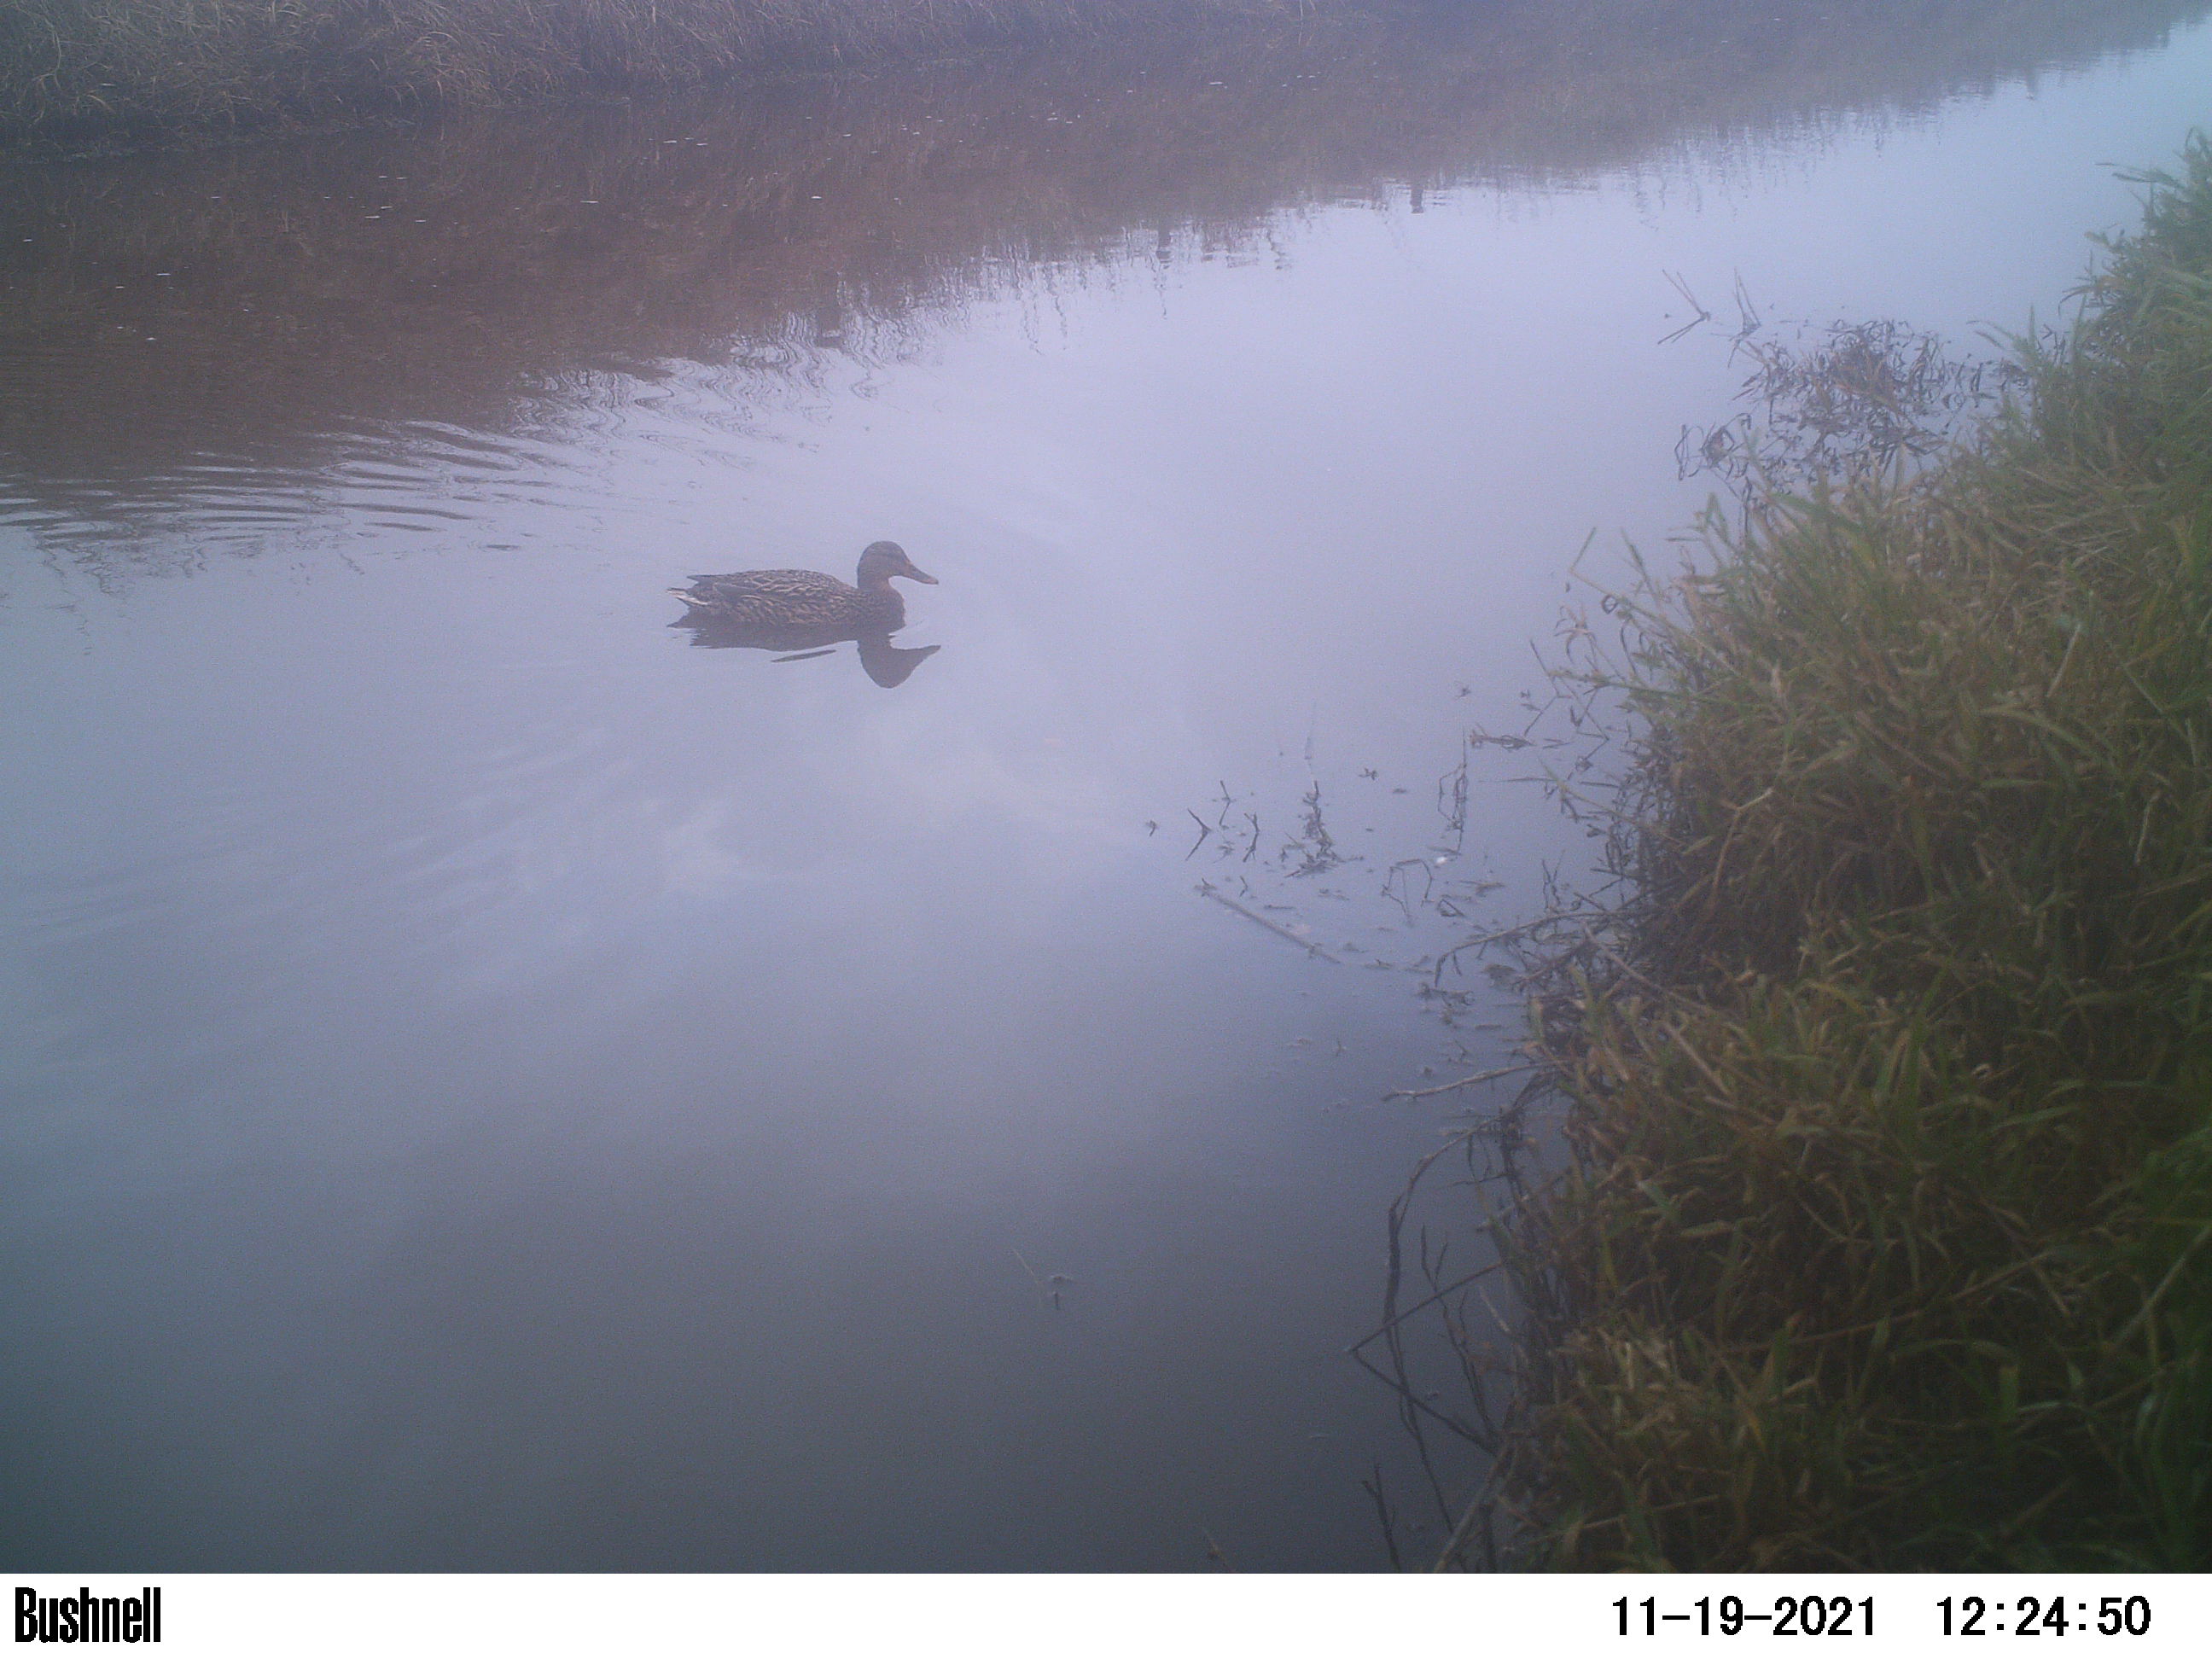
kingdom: Animalia
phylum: Chordata
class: Aves
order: Anseriformes
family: Anatidae
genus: Anas
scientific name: Anas
